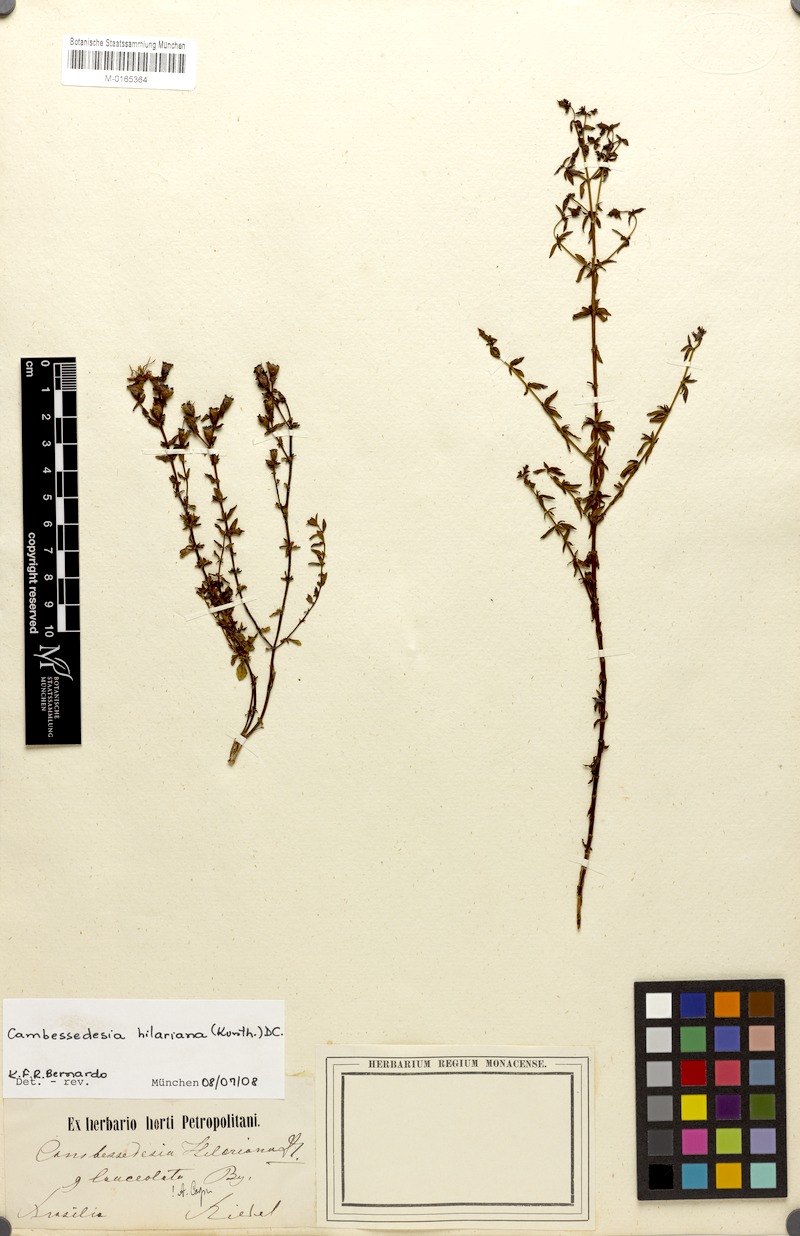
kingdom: Plantae
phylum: Tracheophyta
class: Magnoliopsida
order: Myrtales
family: Melastomataceae
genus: Cambessedesia
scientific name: Cambessedesia hilariana
